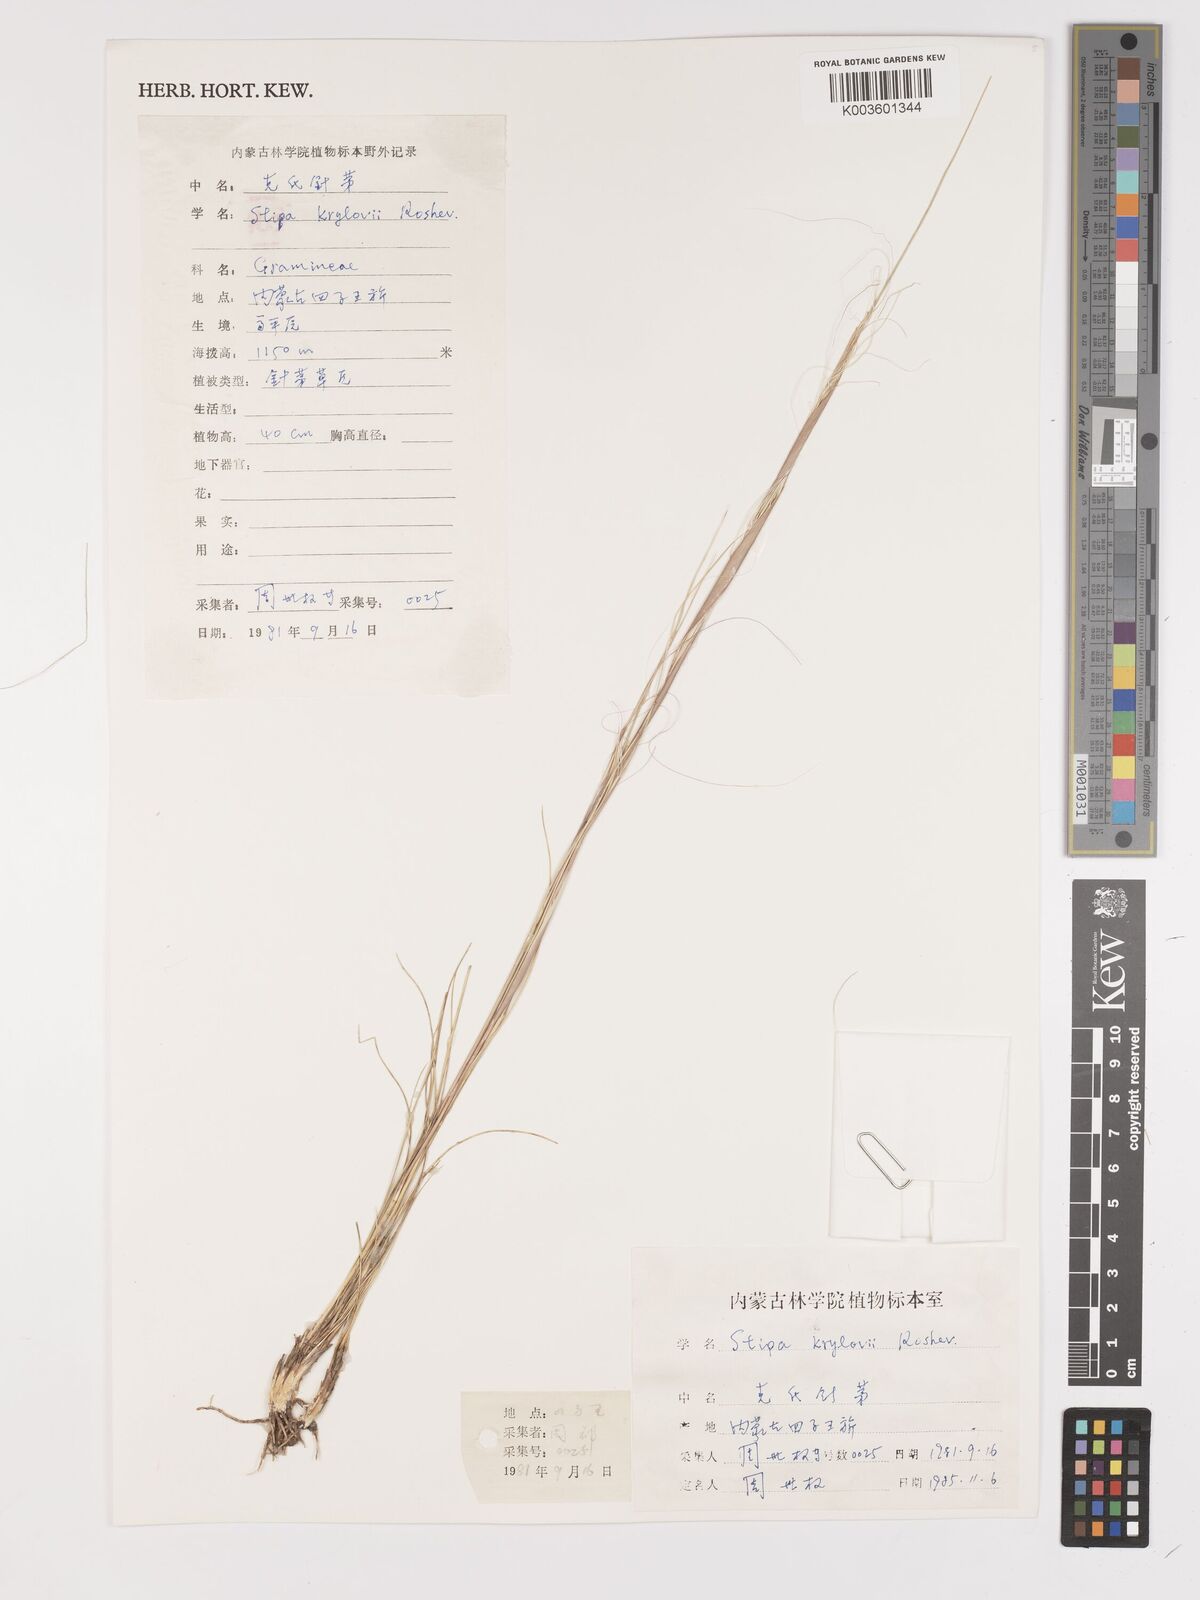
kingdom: Plantae
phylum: Tracheophyta
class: Liliopsida
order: Poales
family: Poaceae
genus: Stipa
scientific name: Stipa krylovii
